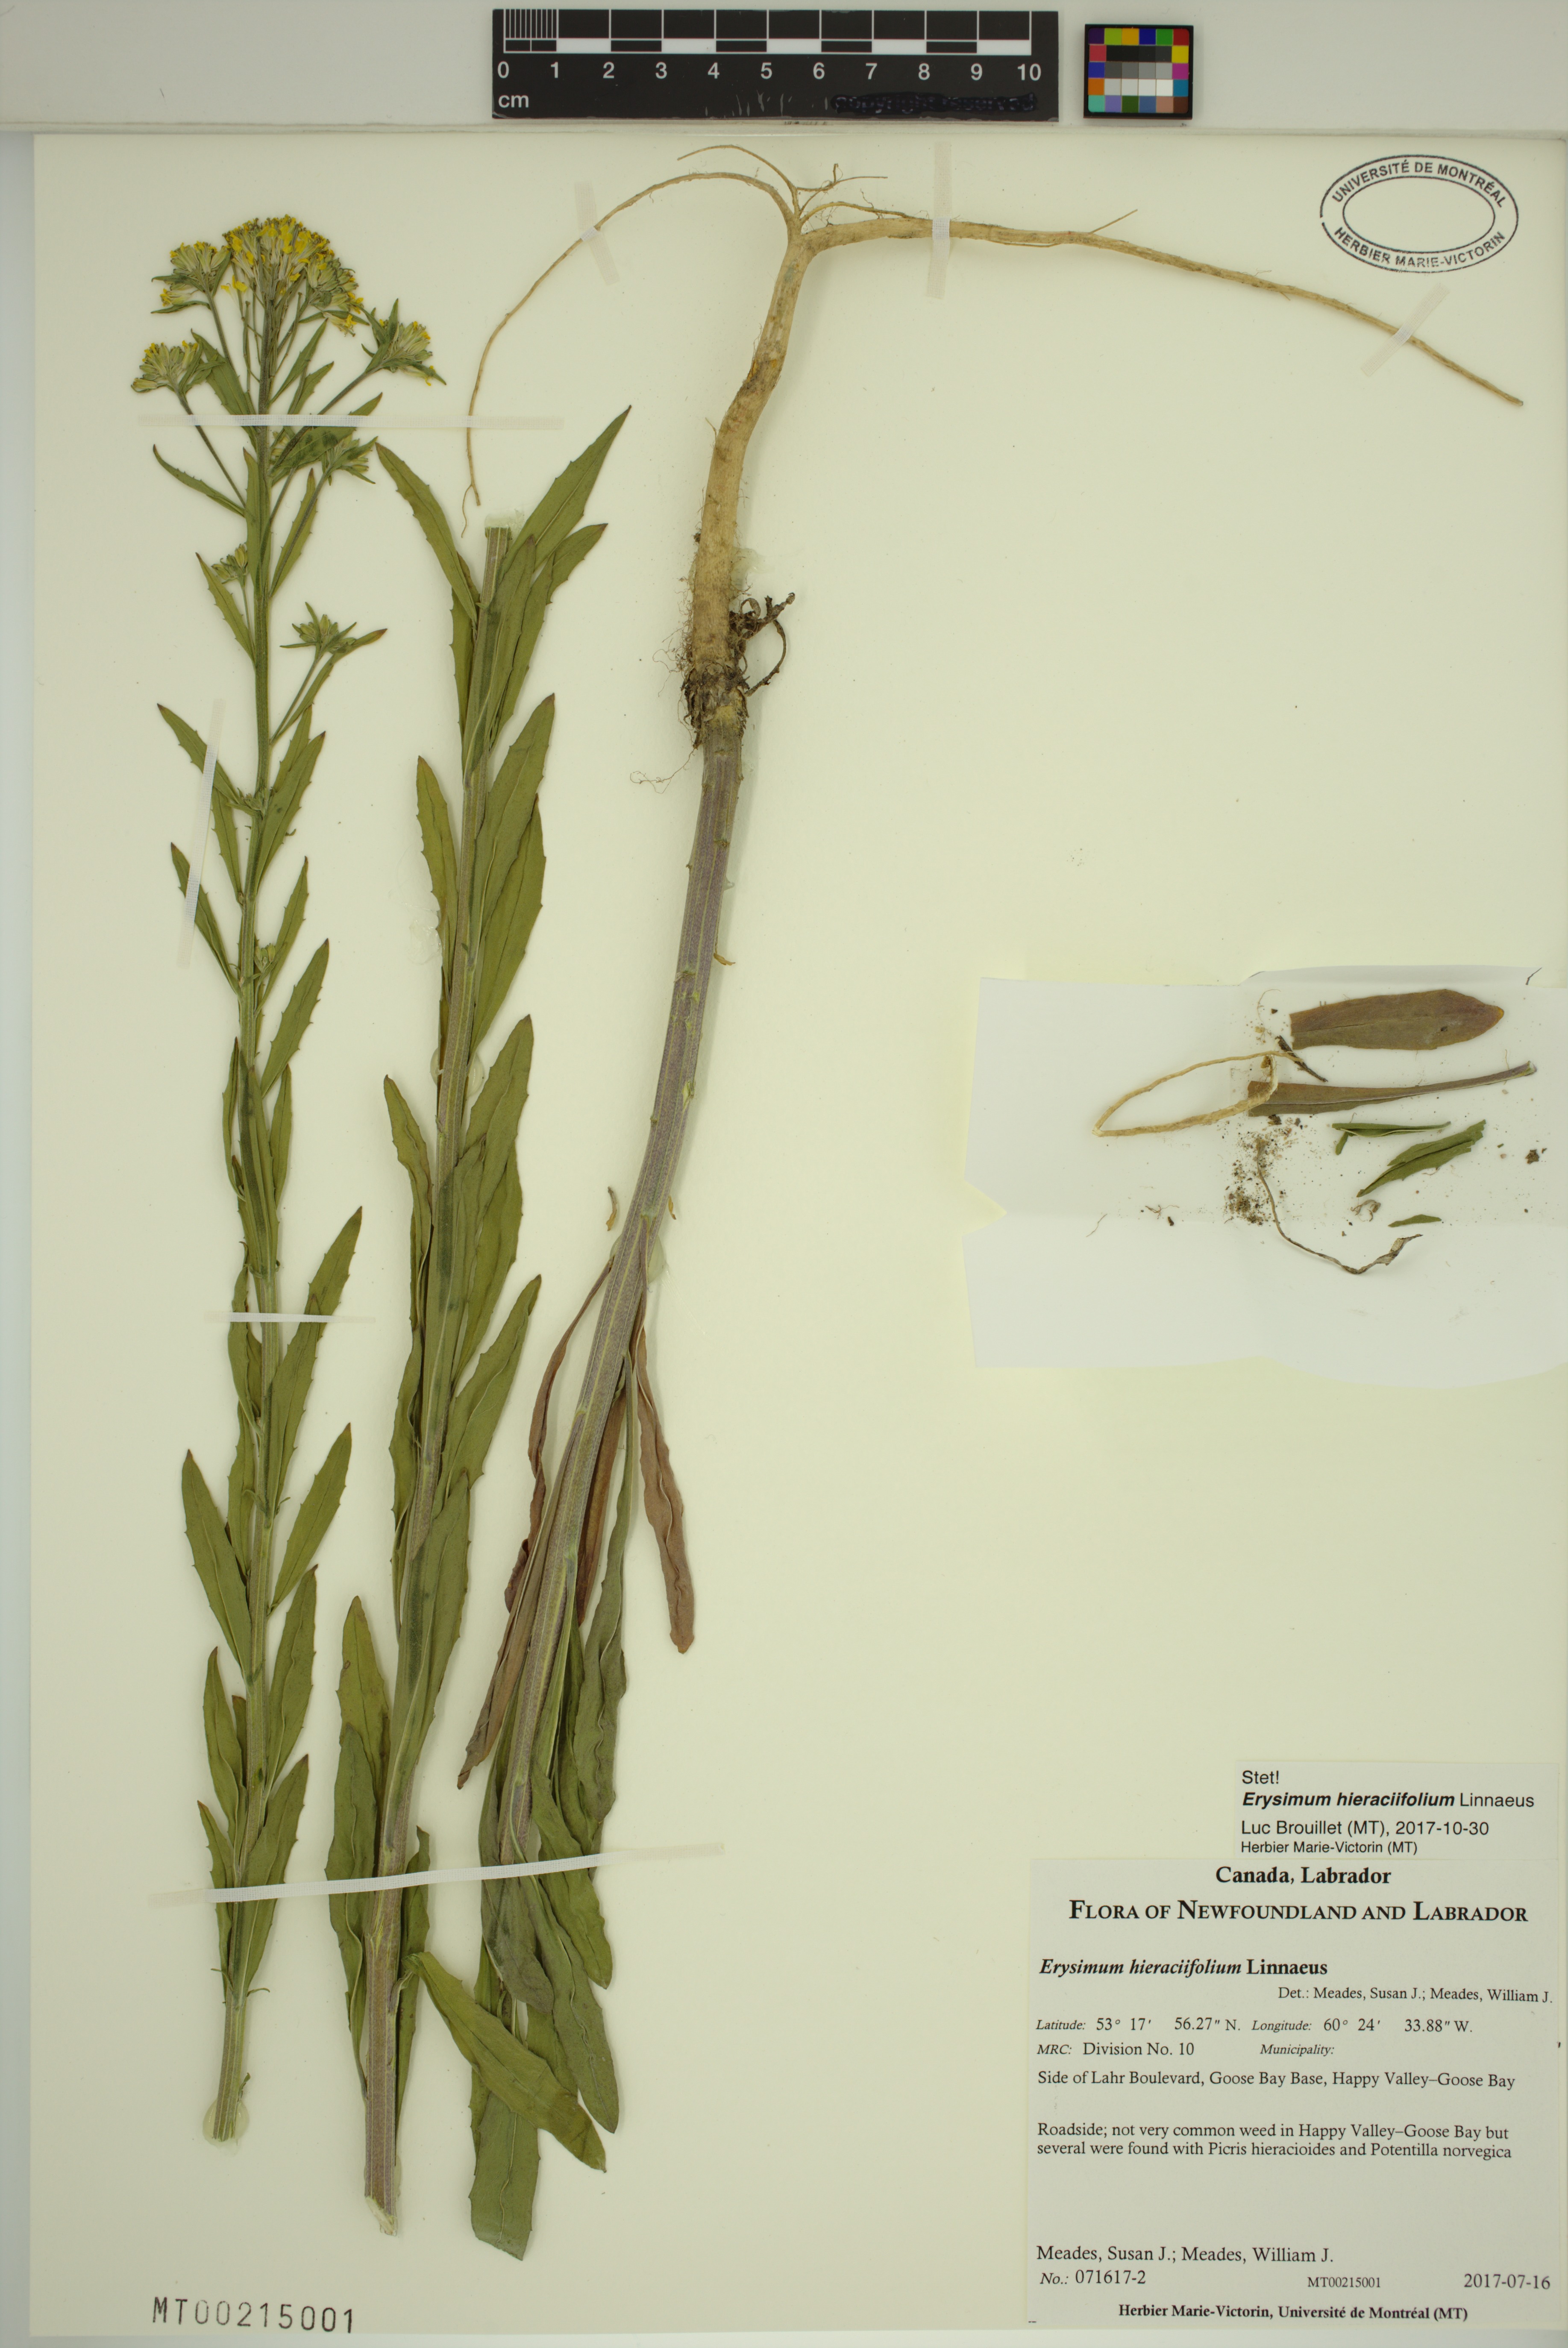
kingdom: Plantae
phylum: Tracheophyta
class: Magnoliopsida
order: Brassicales
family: Brassicaceae
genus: Erysimum
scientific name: Erysimum hieraciifolium
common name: European wallflower
